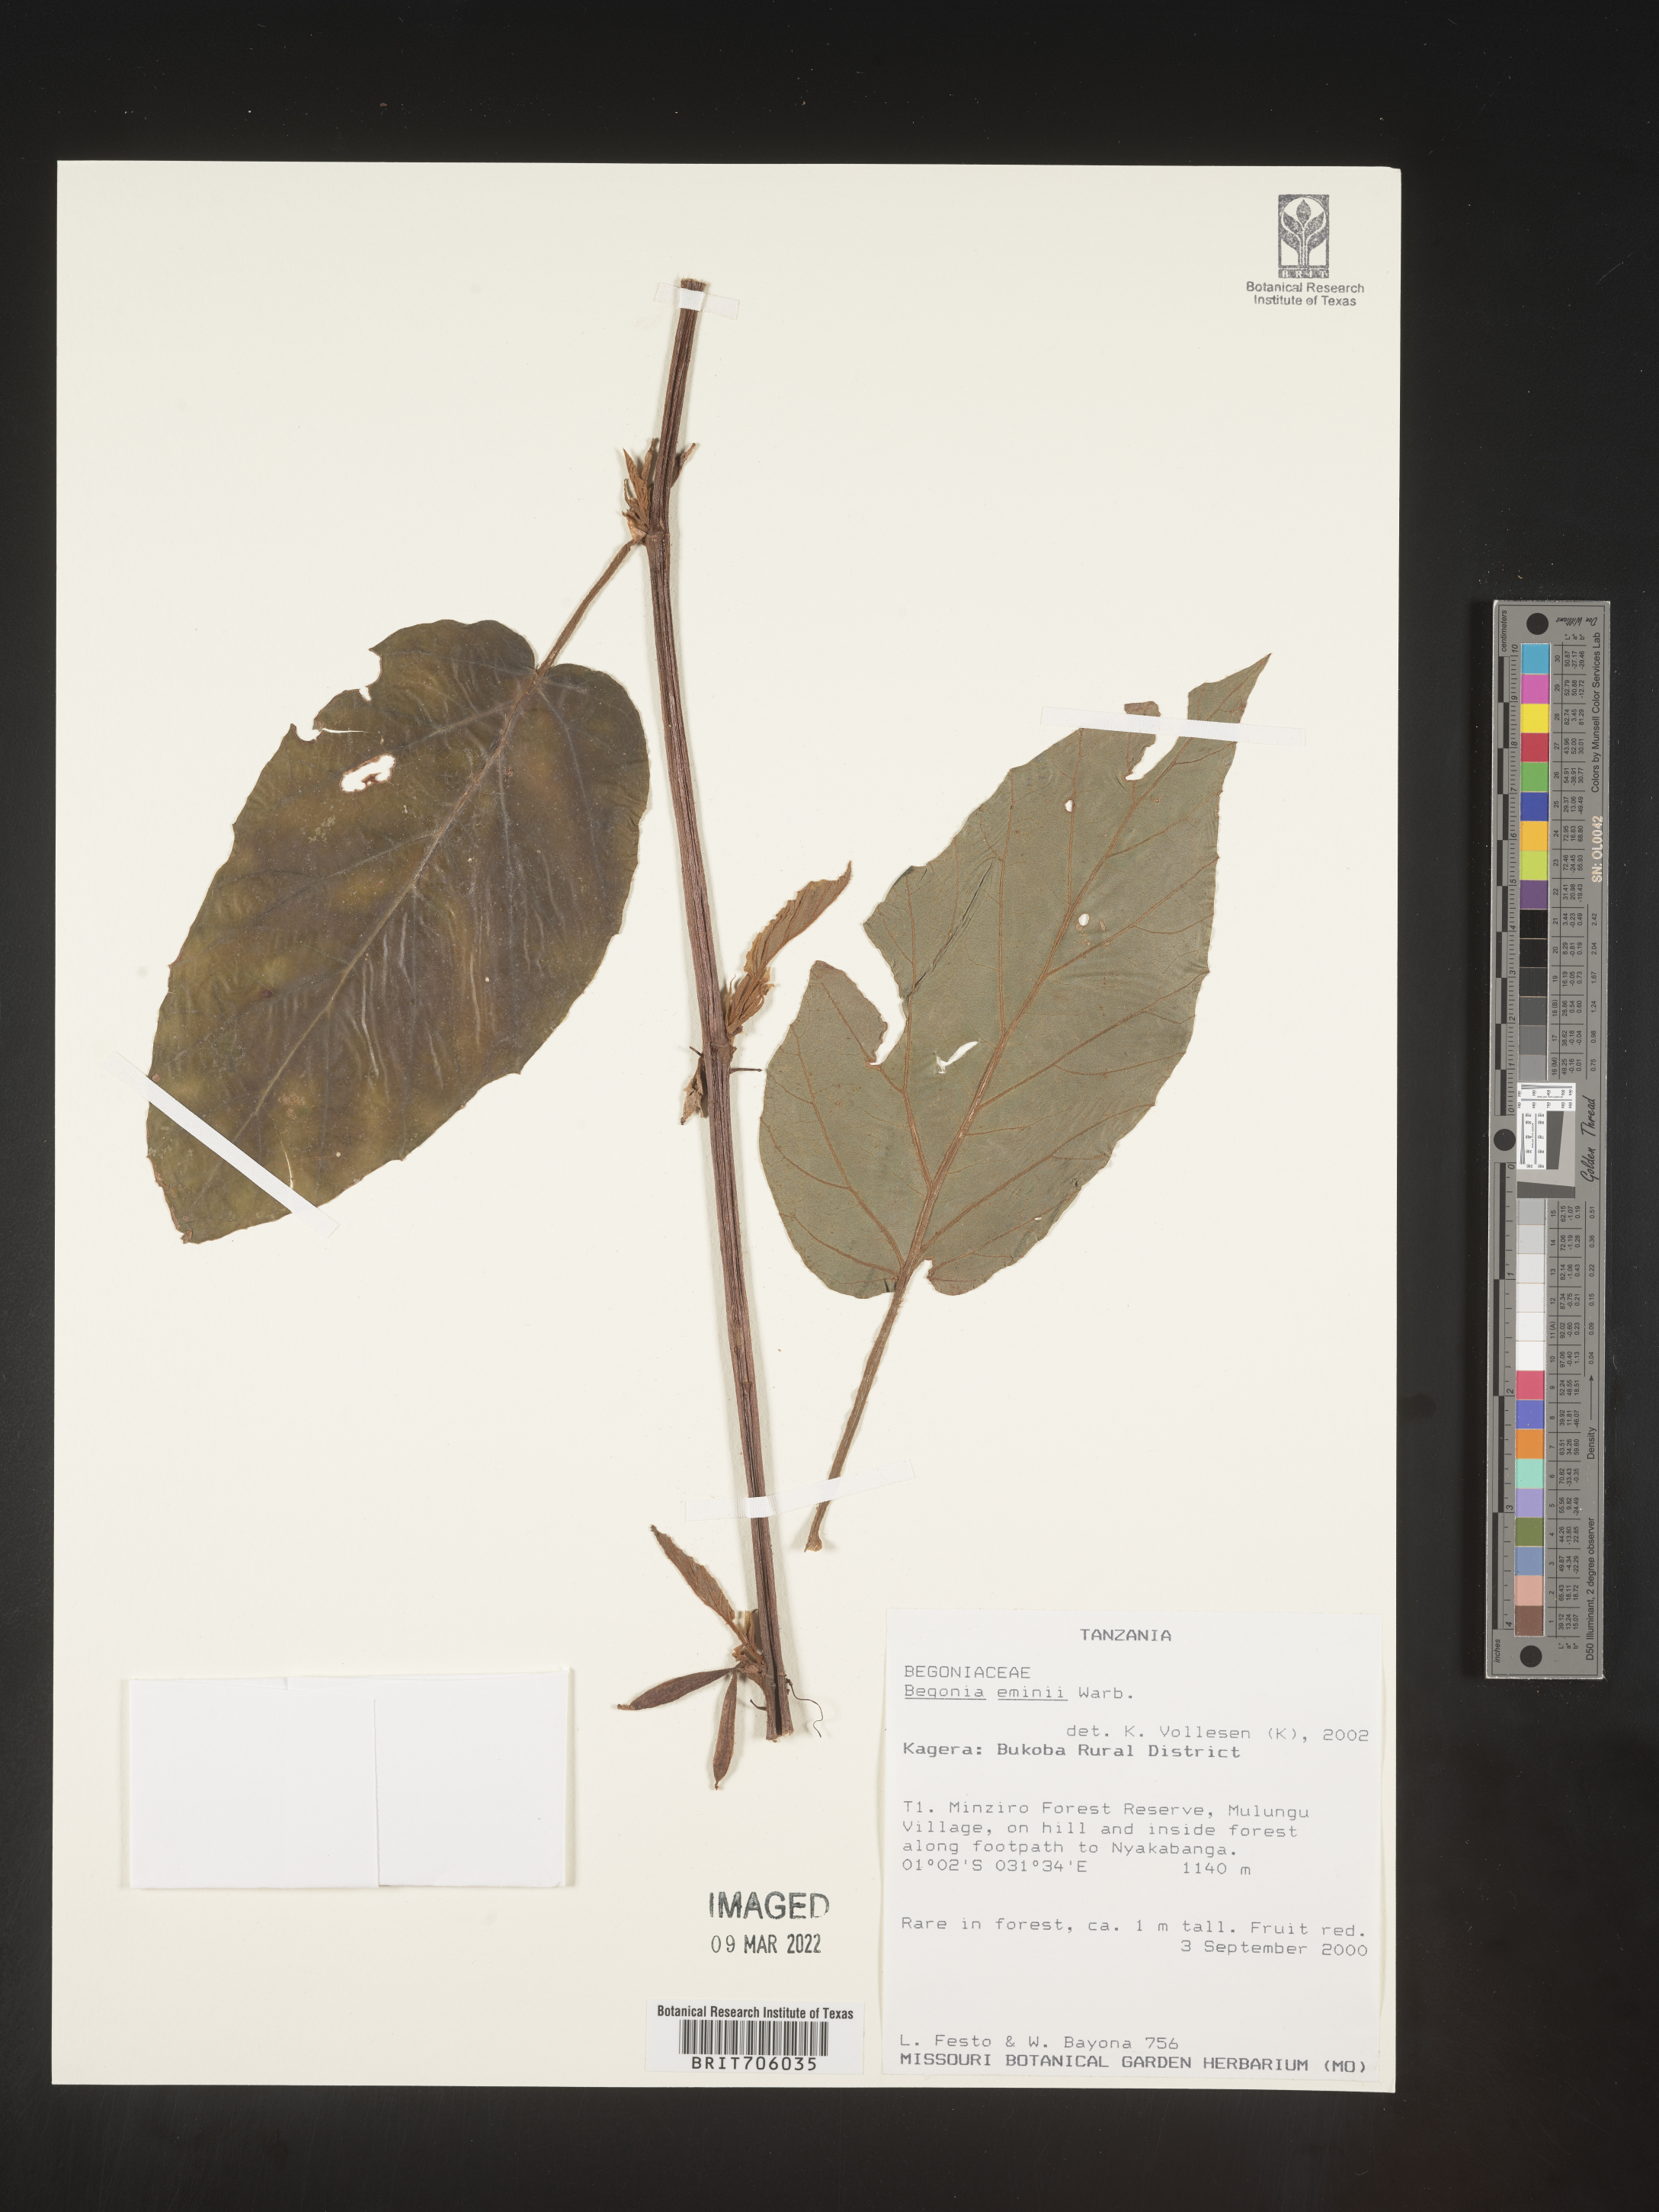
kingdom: Plantae
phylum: Tracheophyta
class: Magnoliopsida
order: Cucurbitales
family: Begoniaceae
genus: Begonia
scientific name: Begonia
